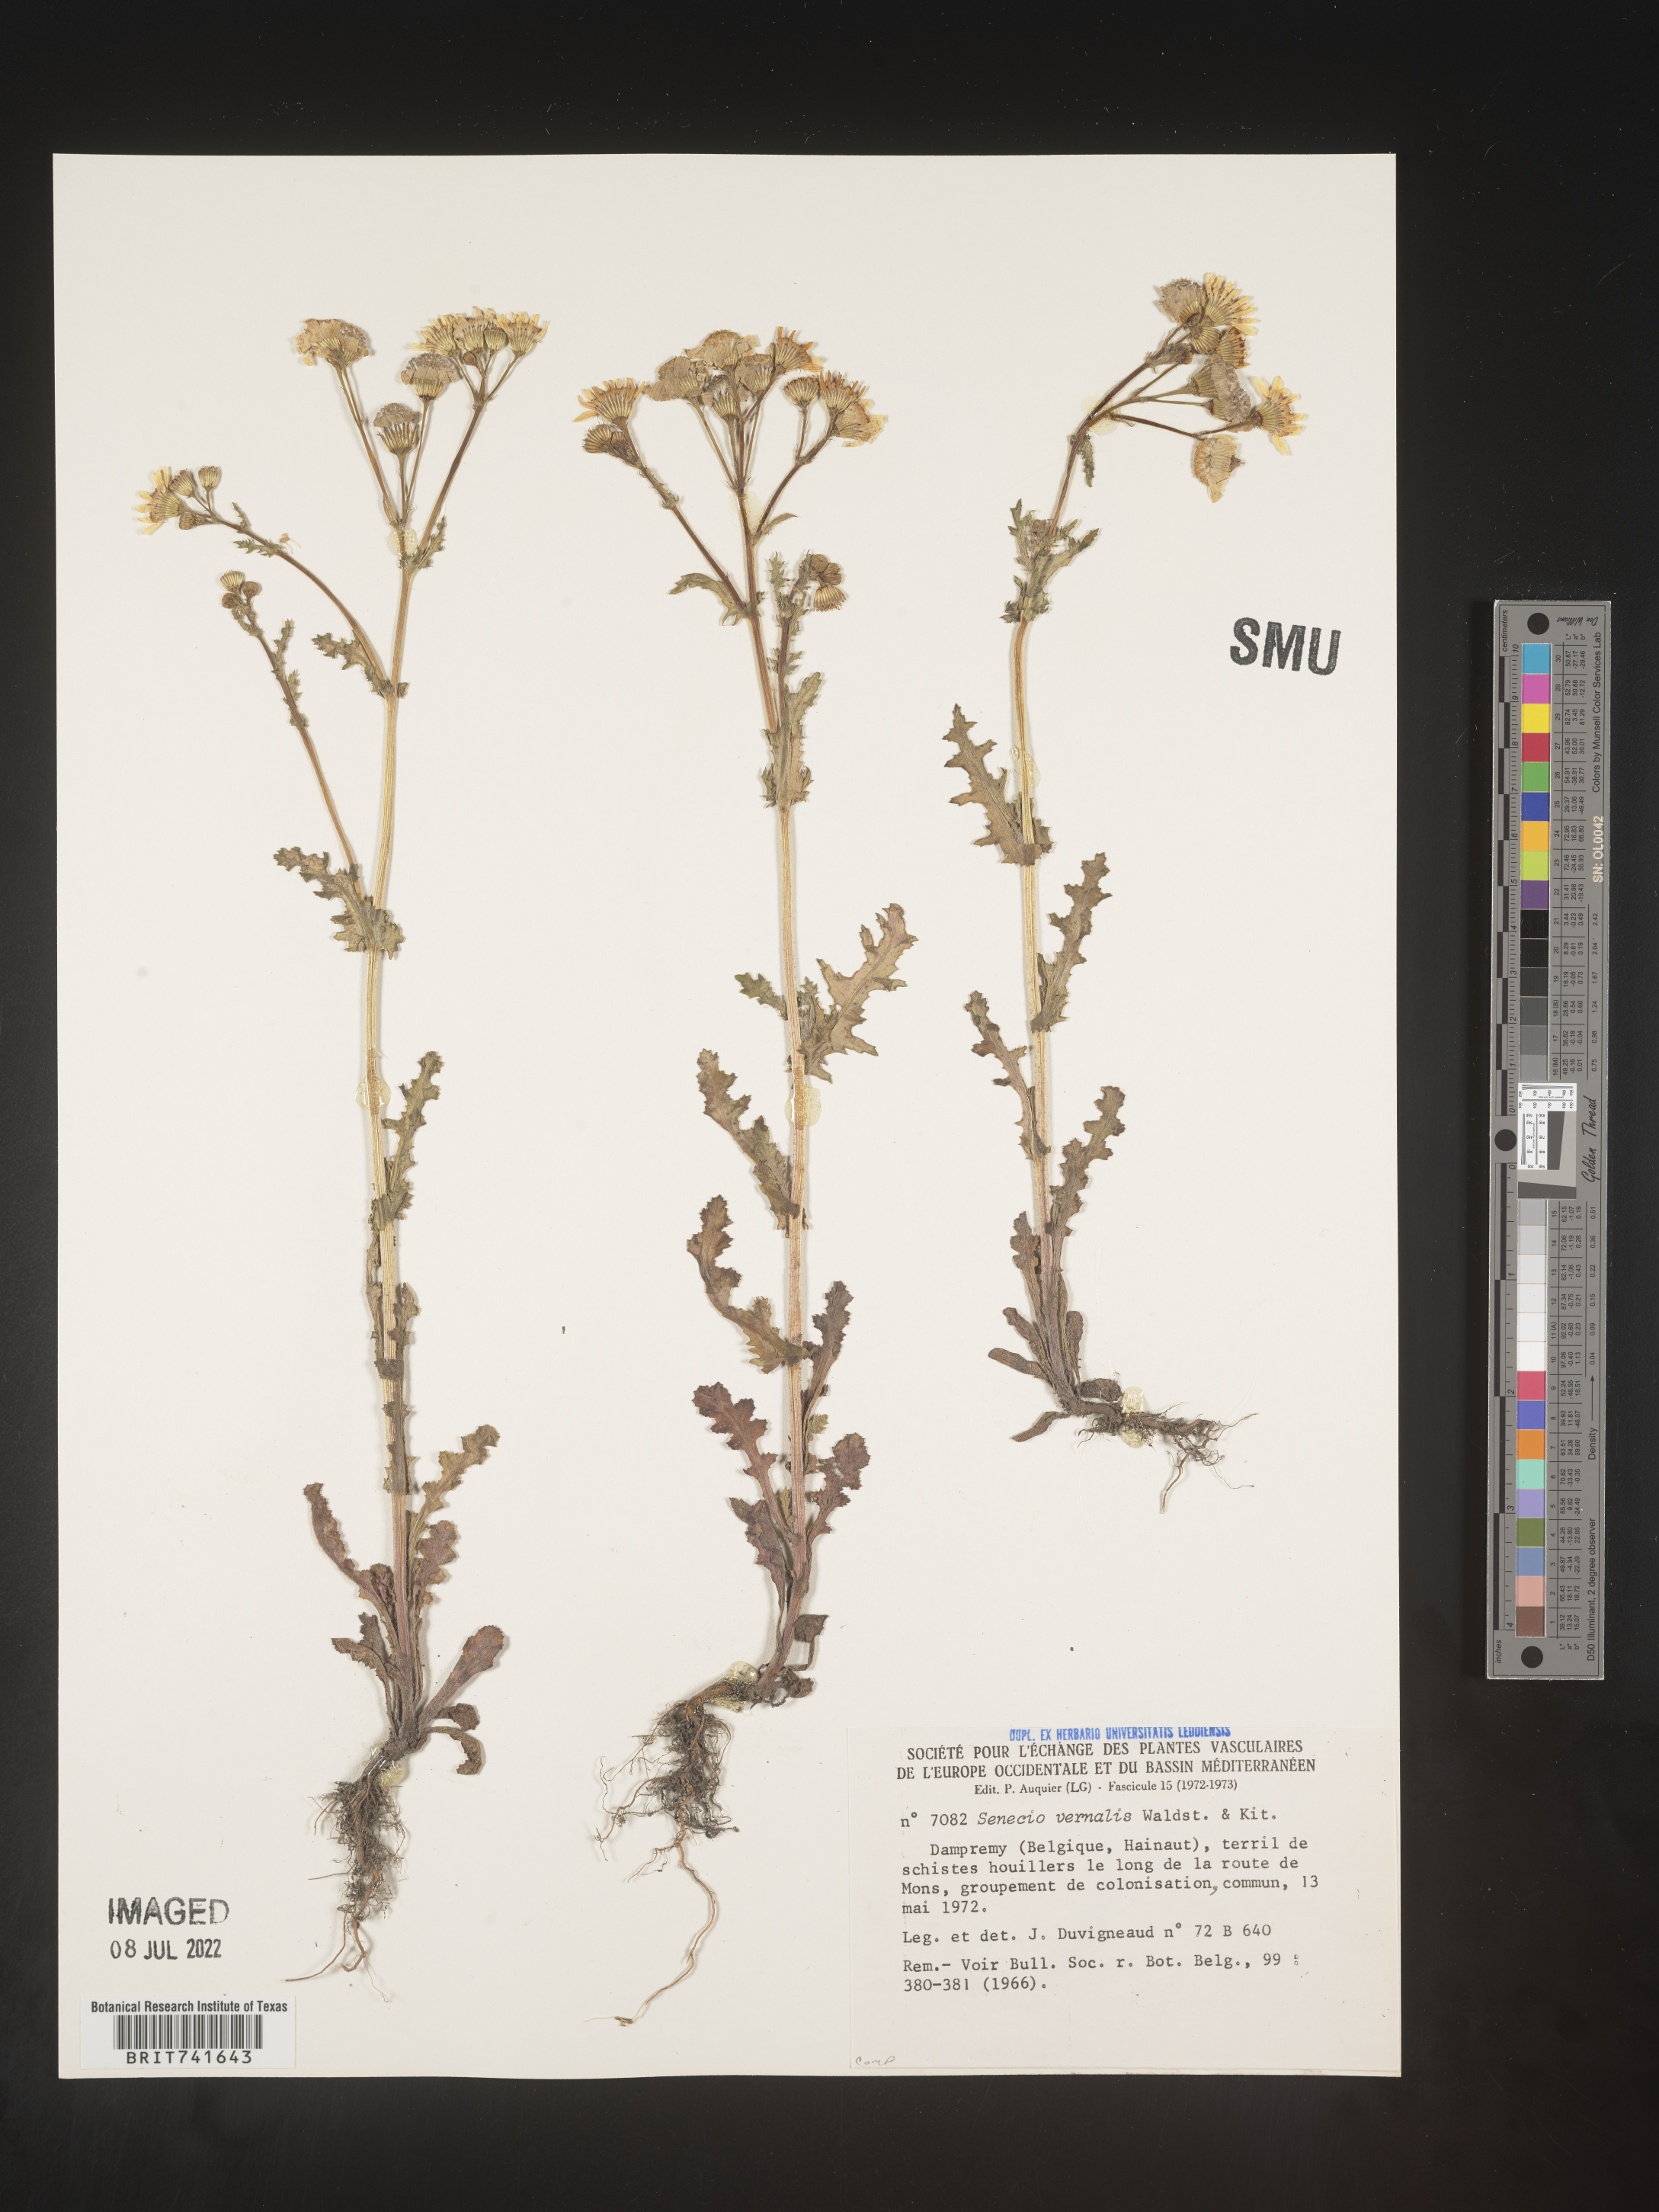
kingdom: Plantae
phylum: Tracheophyta
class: Magnoliopsida
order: Asterales
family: Asteraceae
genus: Senecio
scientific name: Senecio vernalis
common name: Eastern groundsel
